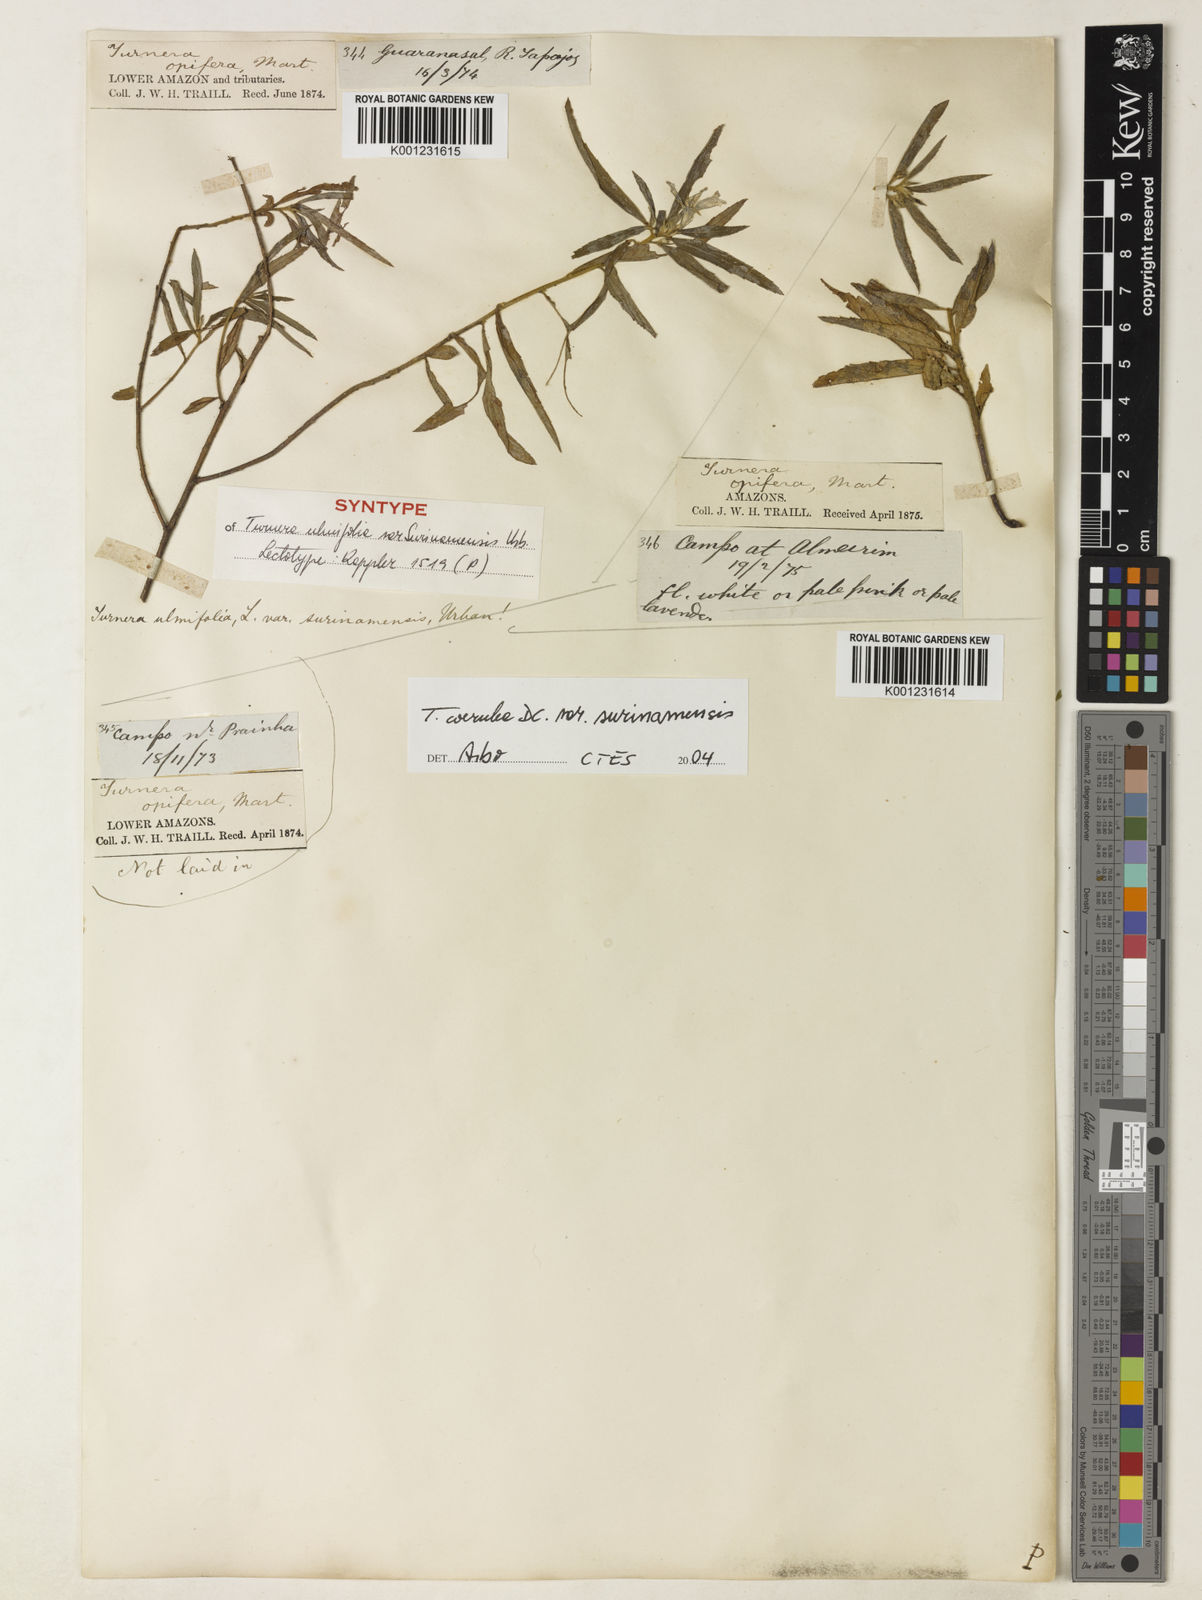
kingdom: Plantae
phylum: Tracheophyta
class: Magnoliopsida
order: Malpighiales
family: Turneraceae
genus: Turnera
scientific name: Turnera coerulea
